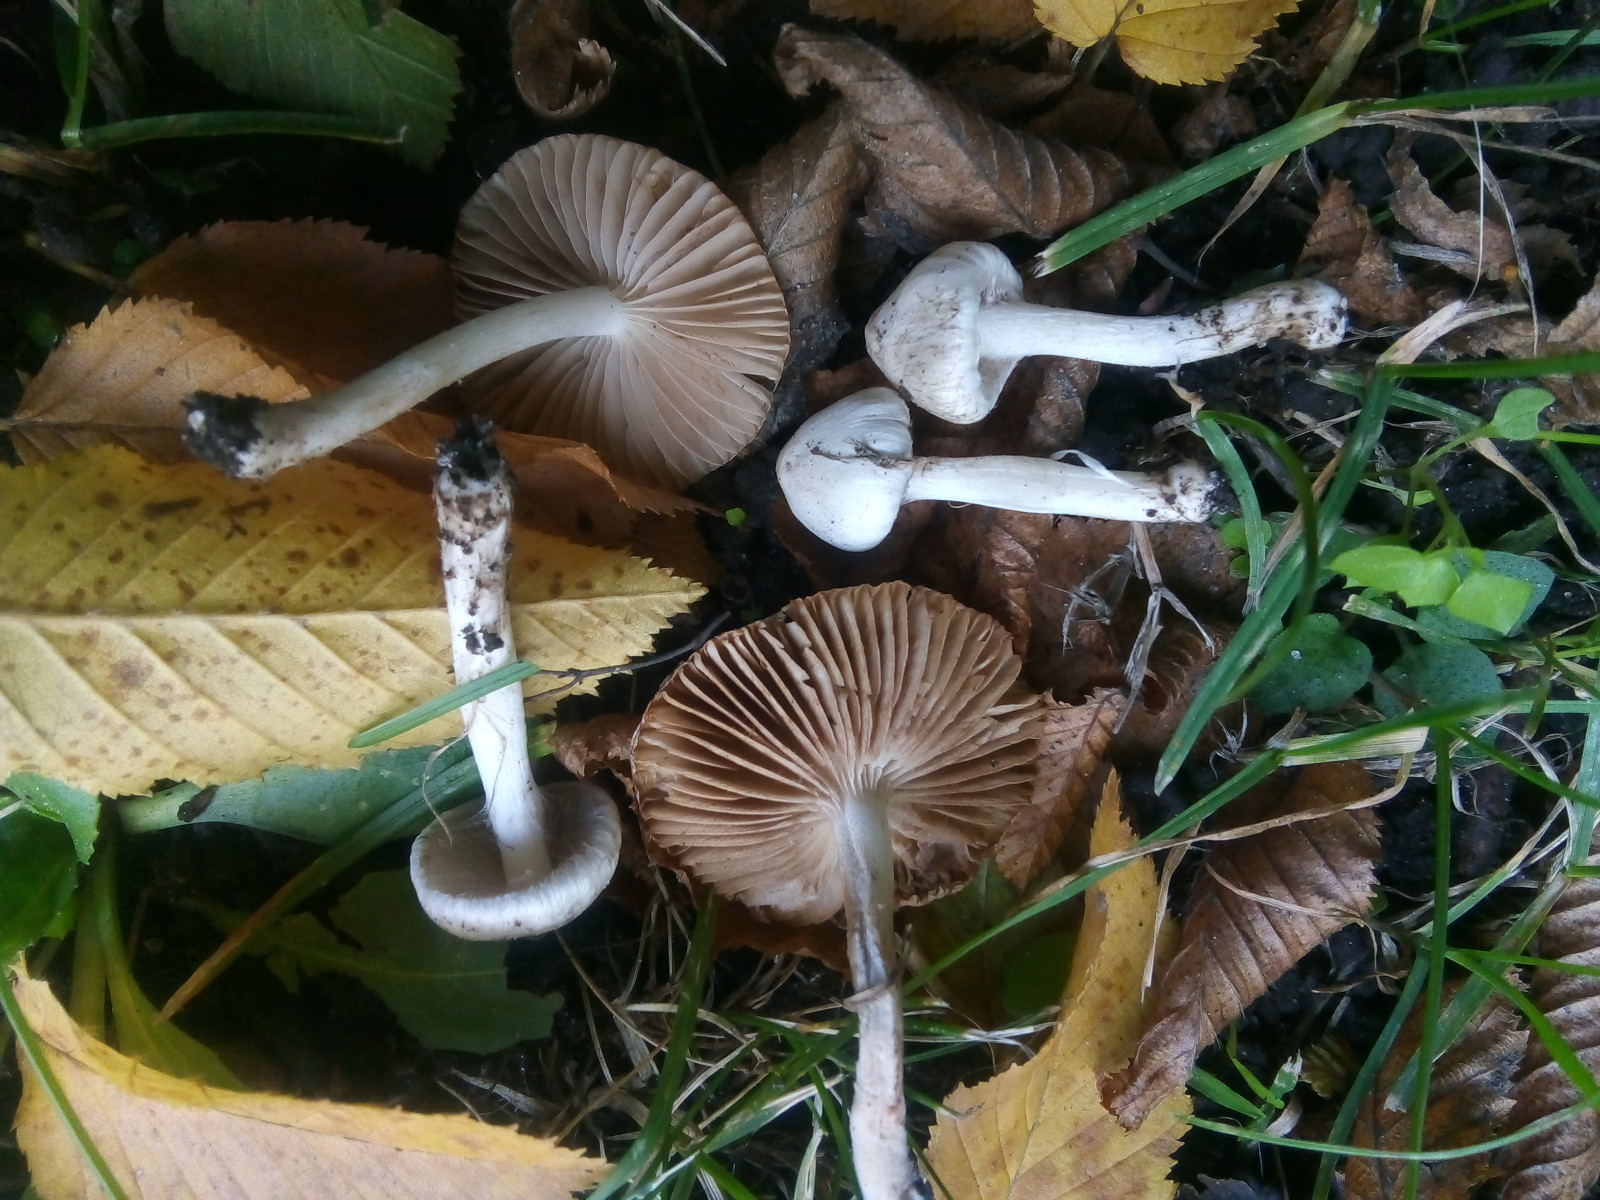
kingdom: Fungi
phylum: Basidiomycota
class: Agaricomycetes
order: Agaricales
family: Inocybaceae
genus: Inocybe
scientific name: Inocybe
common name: almindelig trævlhat
